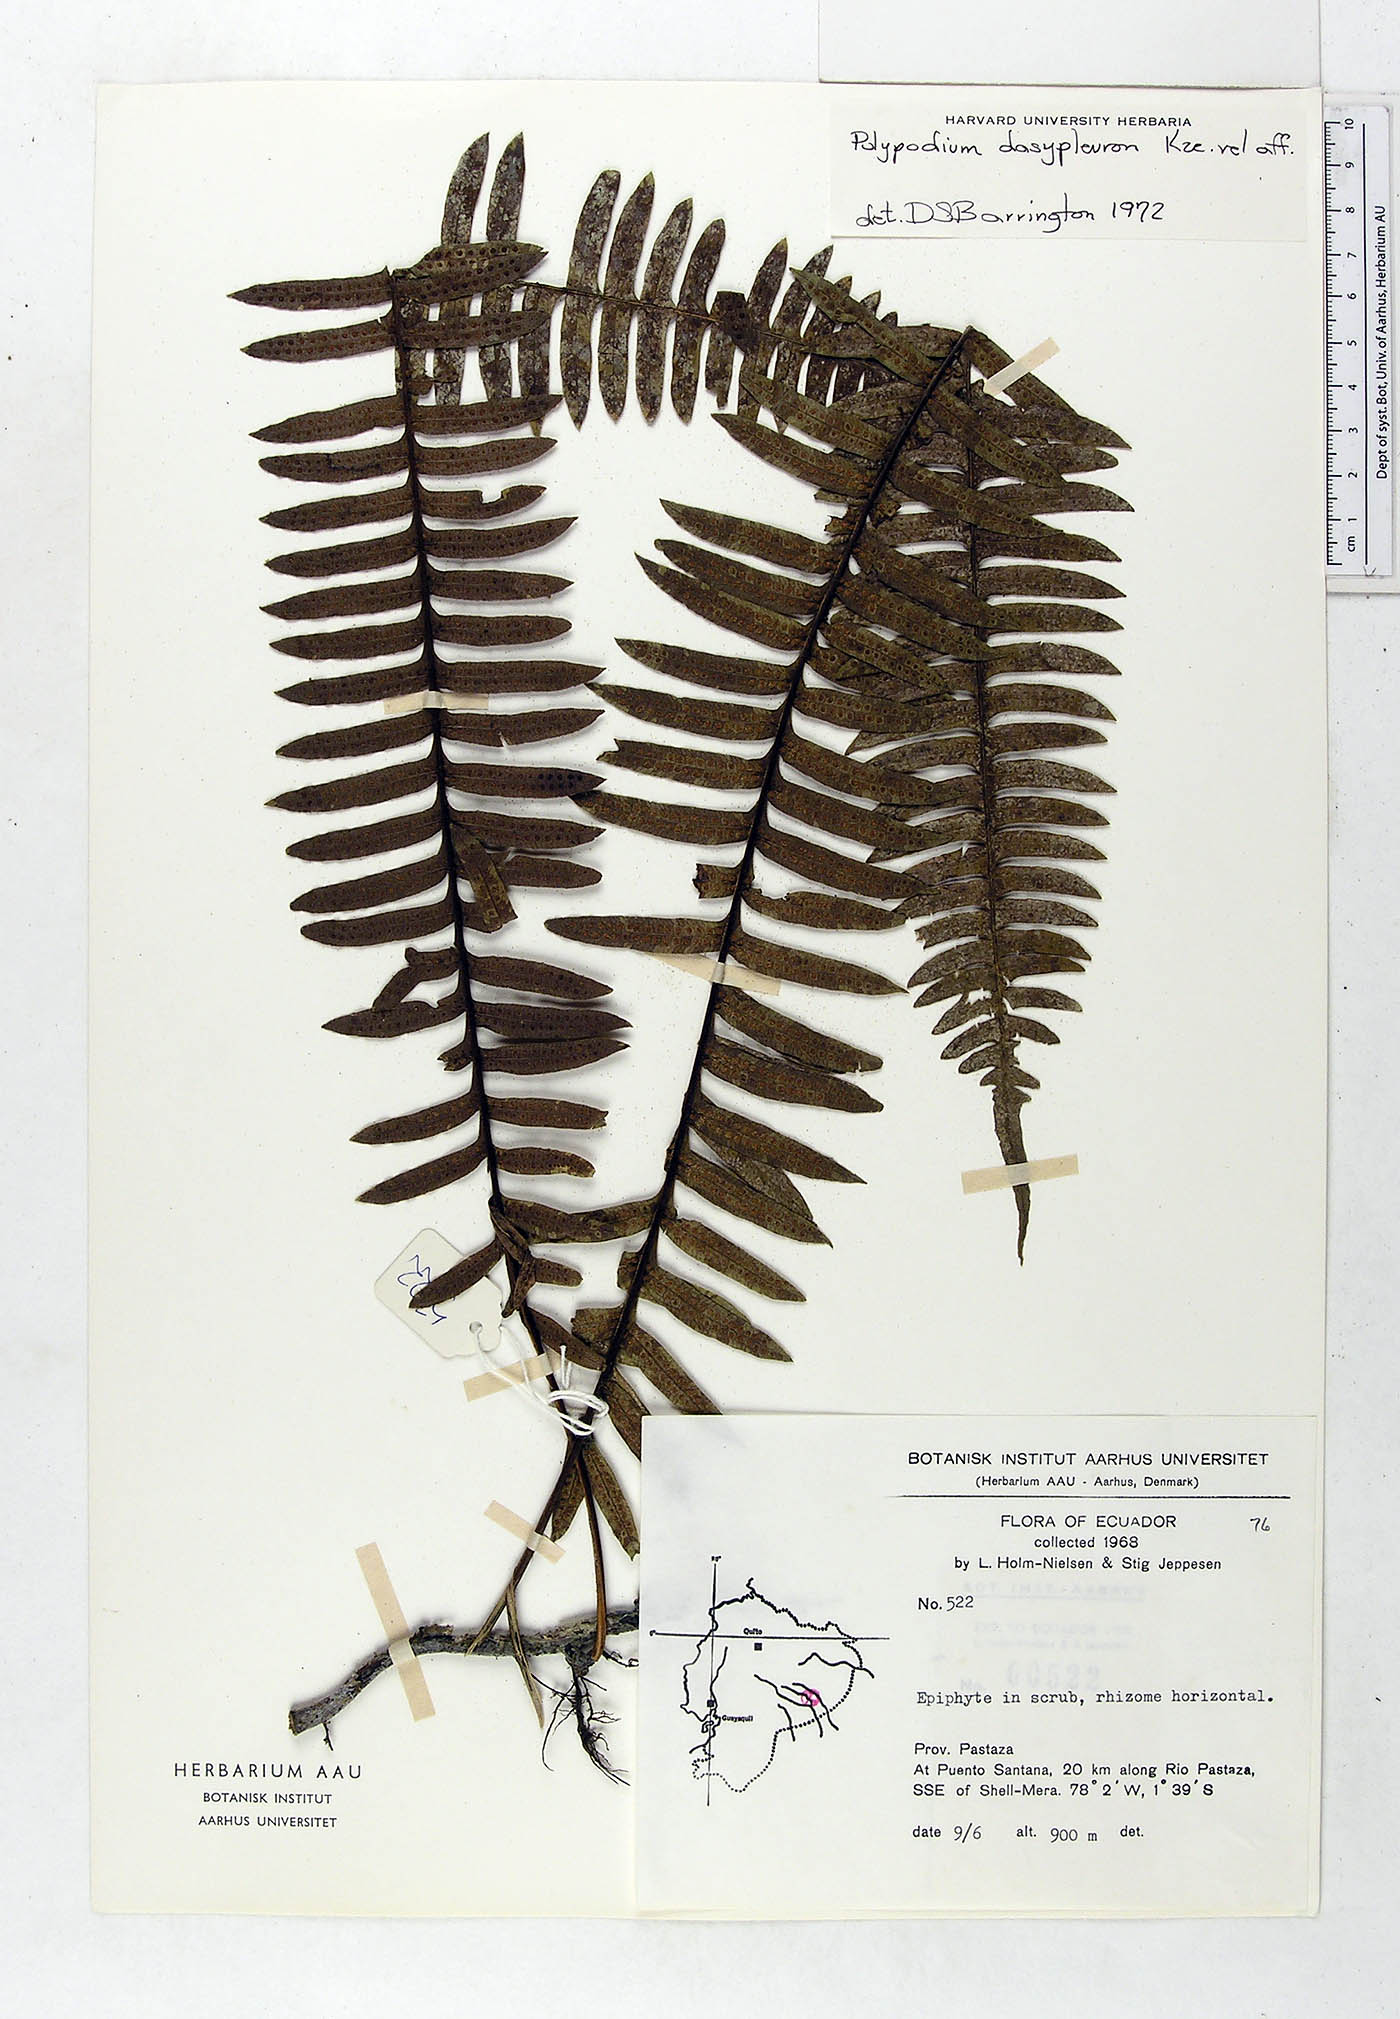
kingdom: Plantae
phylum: Tracheophyta
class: Polypodiopsida
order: Polypodiales
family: Polypodiaceae
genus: Serpocaulon
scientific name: Serpocaulon dasypleuron
